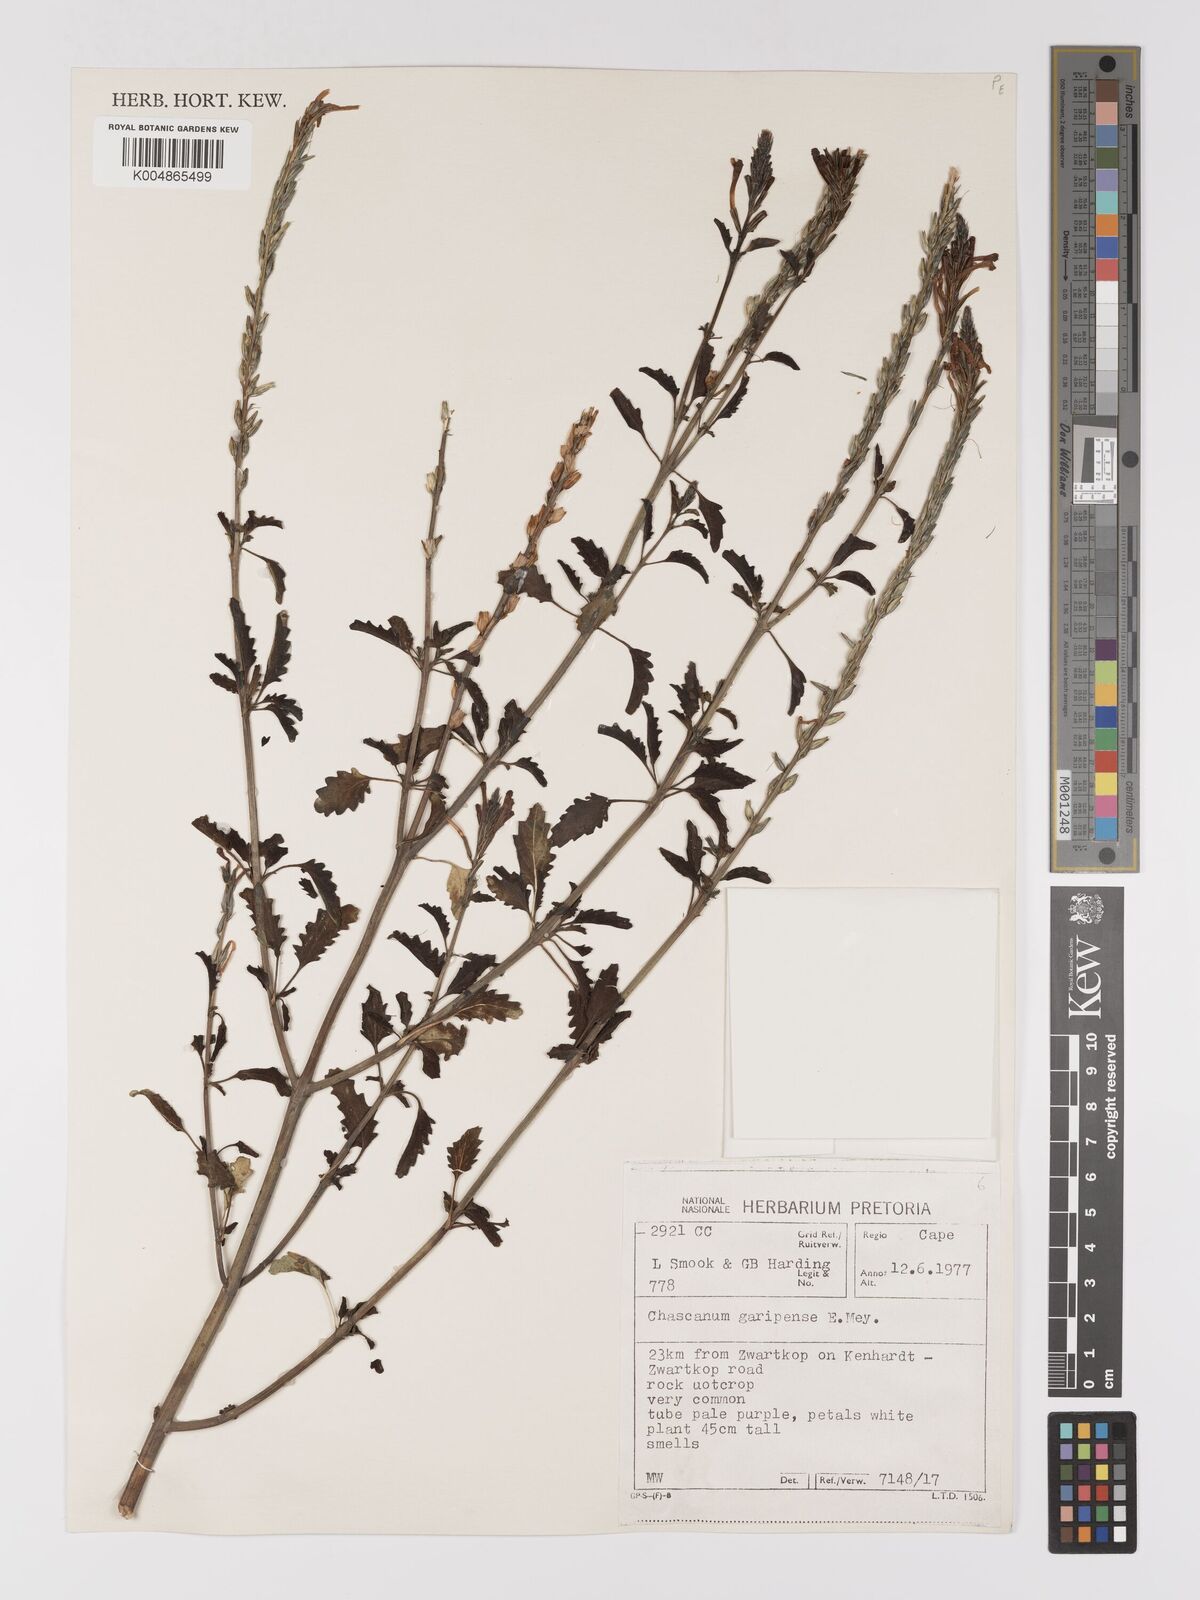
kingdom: Plantae
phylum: Tracheophyta
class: Magnoliopsida
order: Lamiales
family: Verbenaceae
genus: Chascanum
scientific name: Chascanum garipense
